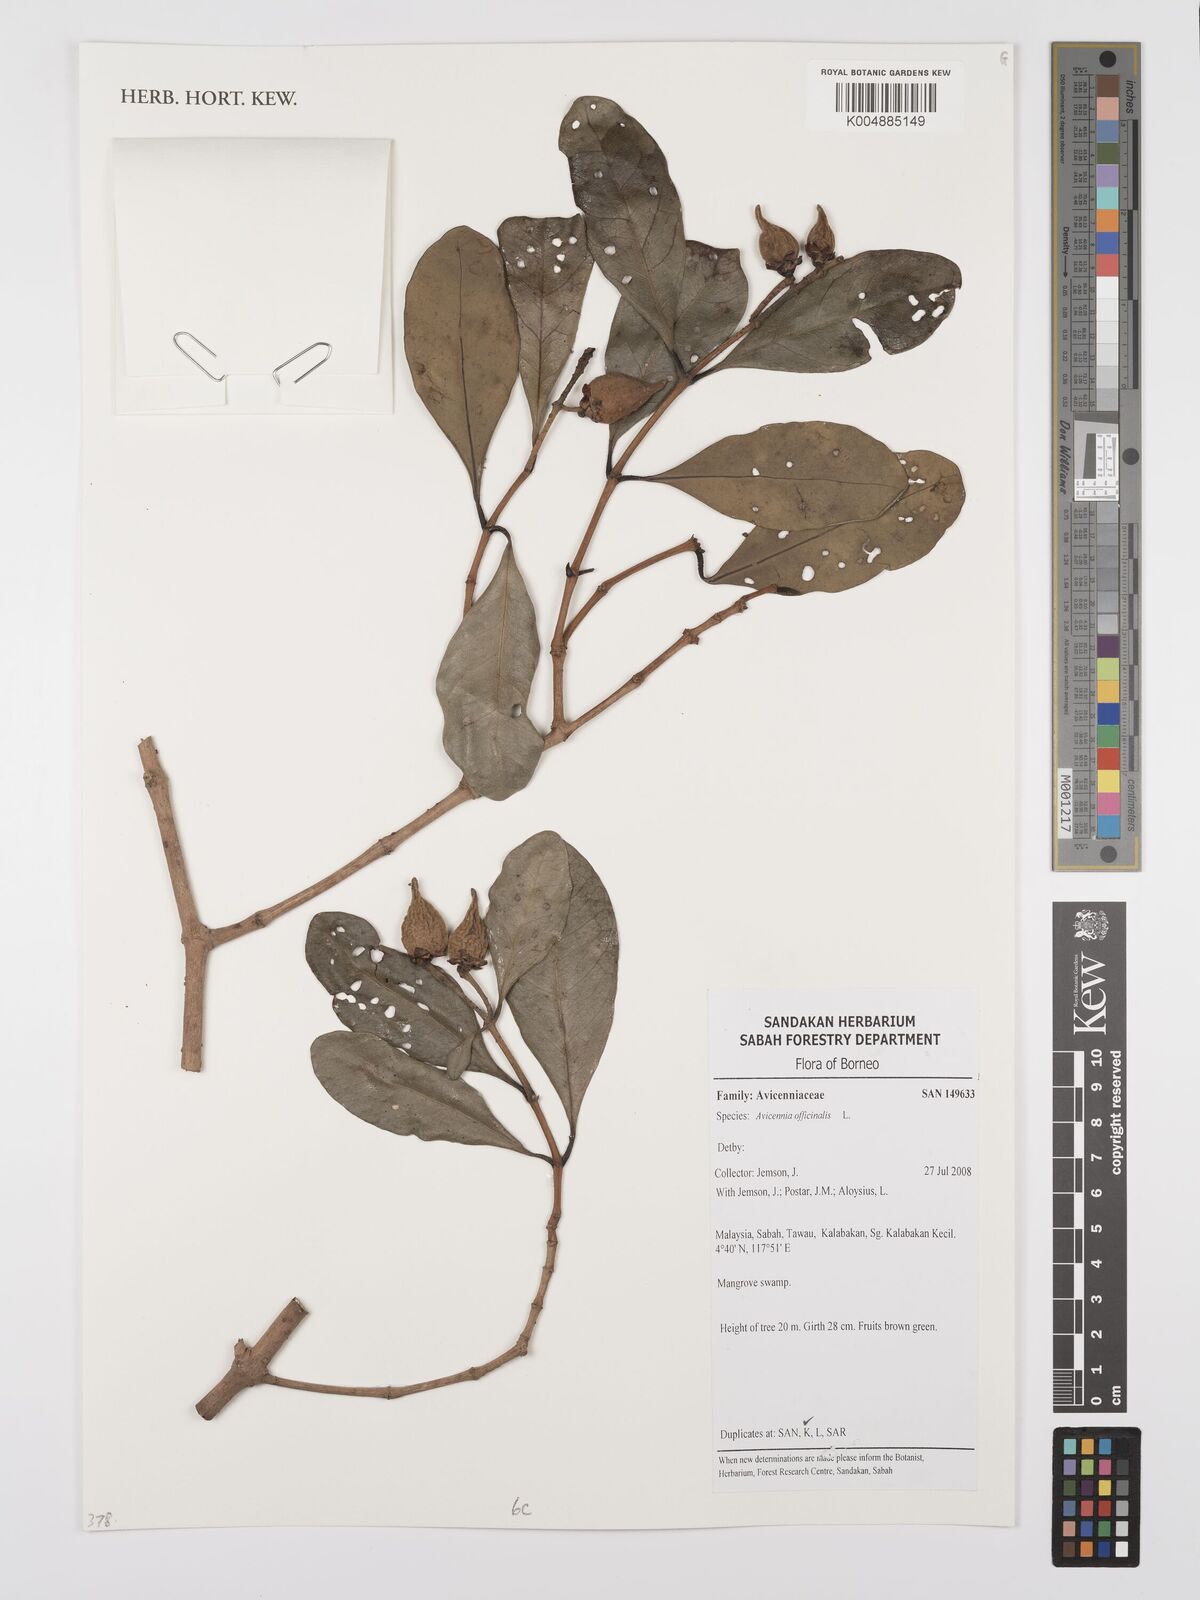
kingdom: Plantae
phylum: Tracheophyta
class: Magnoliopsida
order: Lamiales
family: Acanthaceae
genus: Avicennia
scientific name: Avicennia officinalis
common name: Baen
